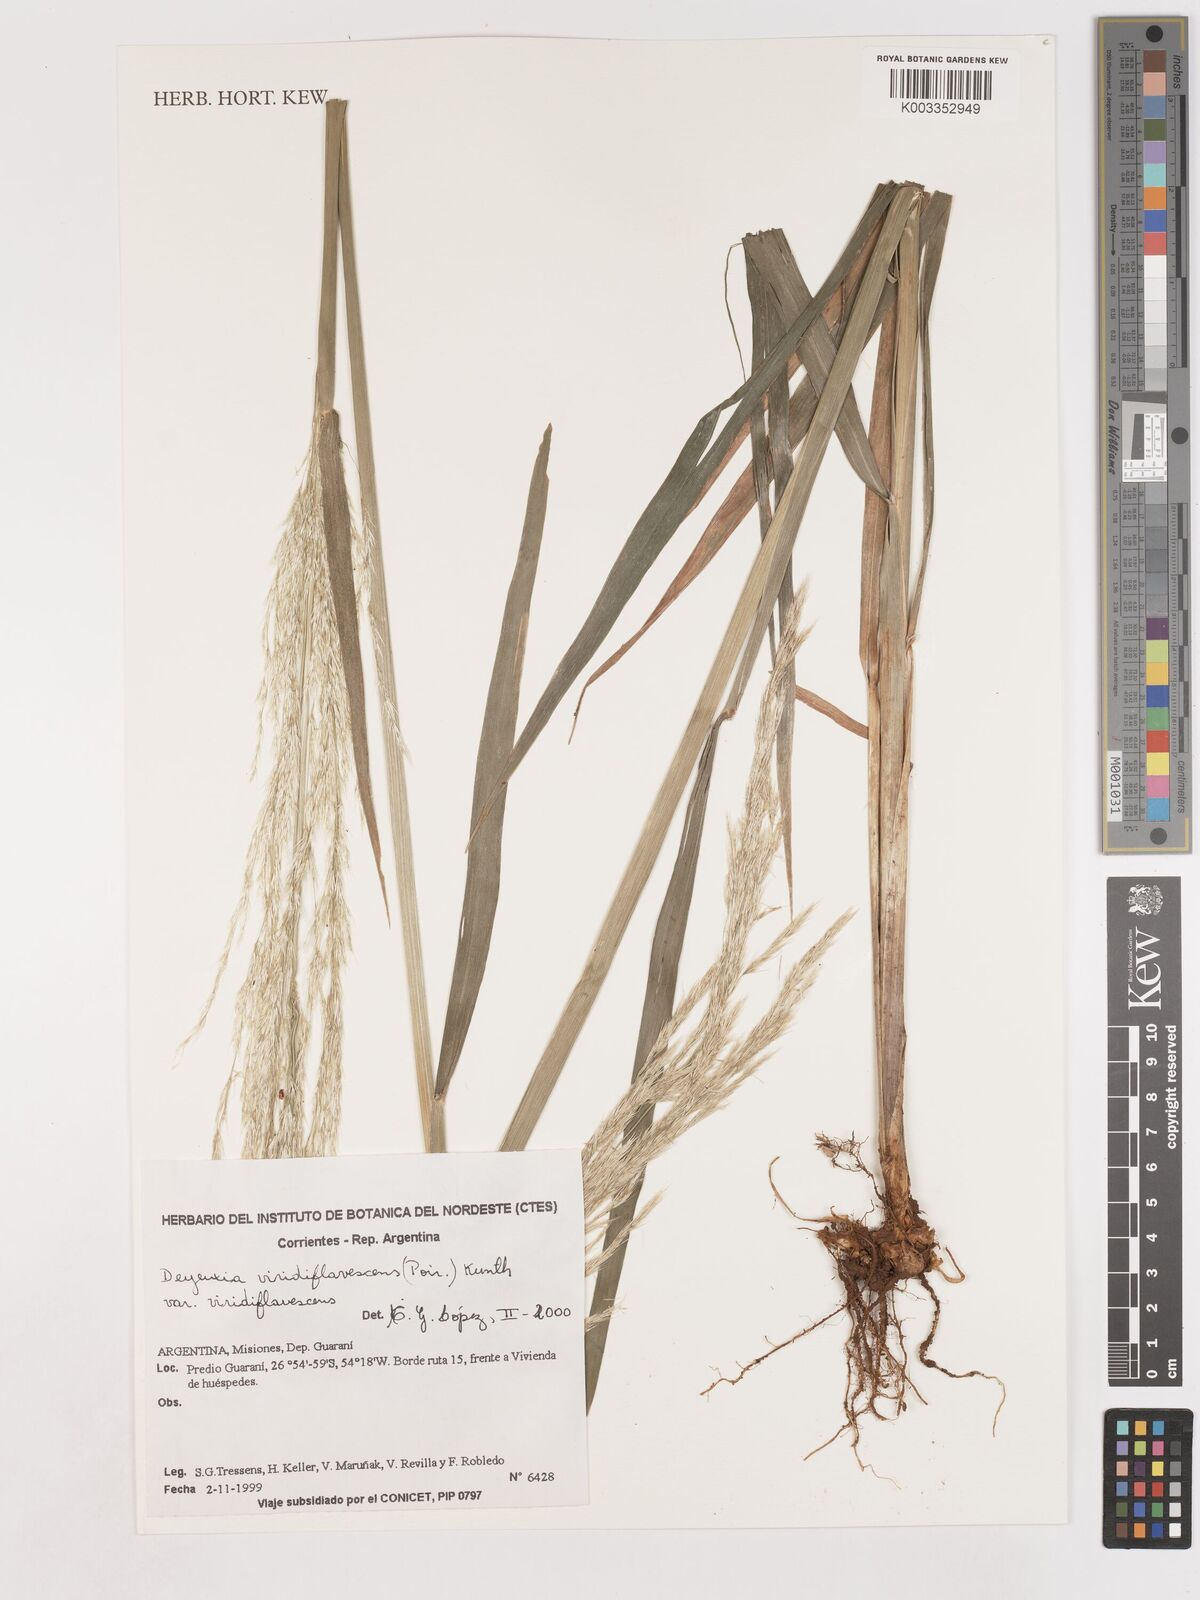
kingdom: Plantae
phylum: Tracheophyta
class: Liliopsida
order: Poales
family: Poaceae
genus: Cinnagrostis
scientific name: Cinnagrostis viridiflavescens
